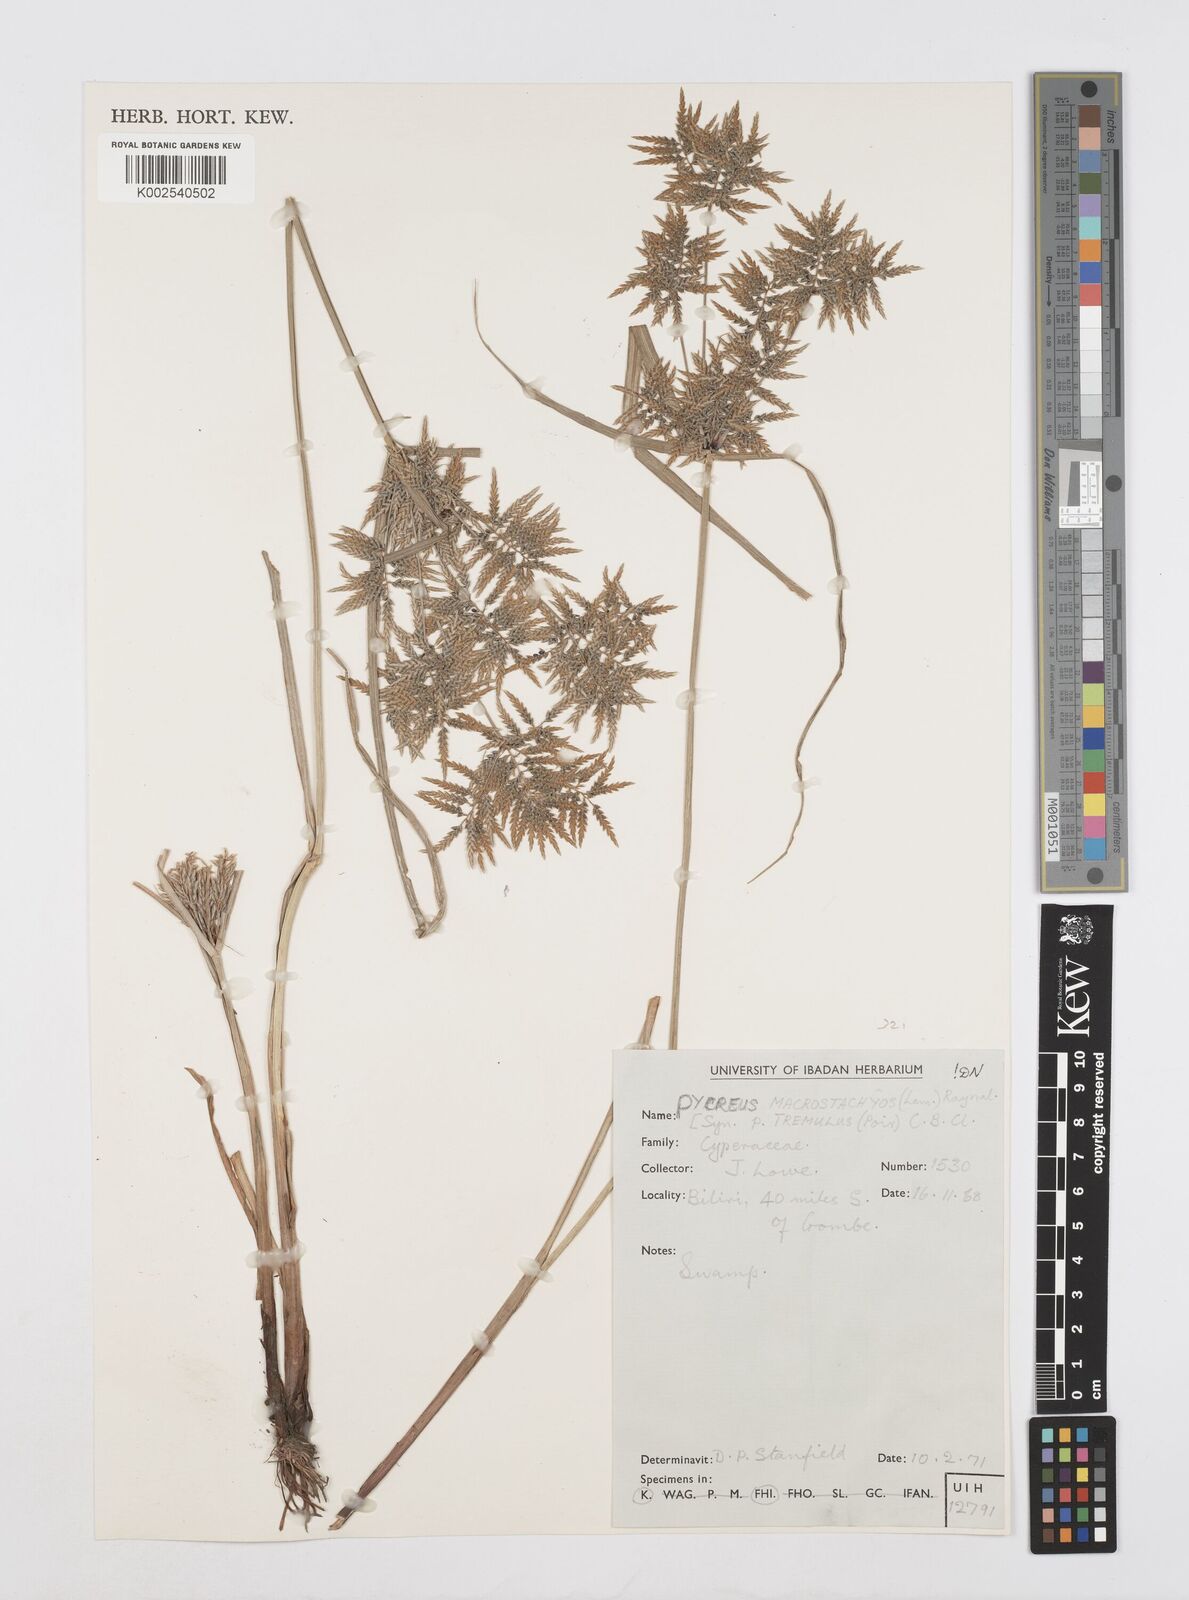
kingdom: Plantae
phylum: Tracheophyta
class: Liliopsida
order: Poales
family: Cyperaceae
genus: Cyperus
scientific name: Cyperus macrostachyos
